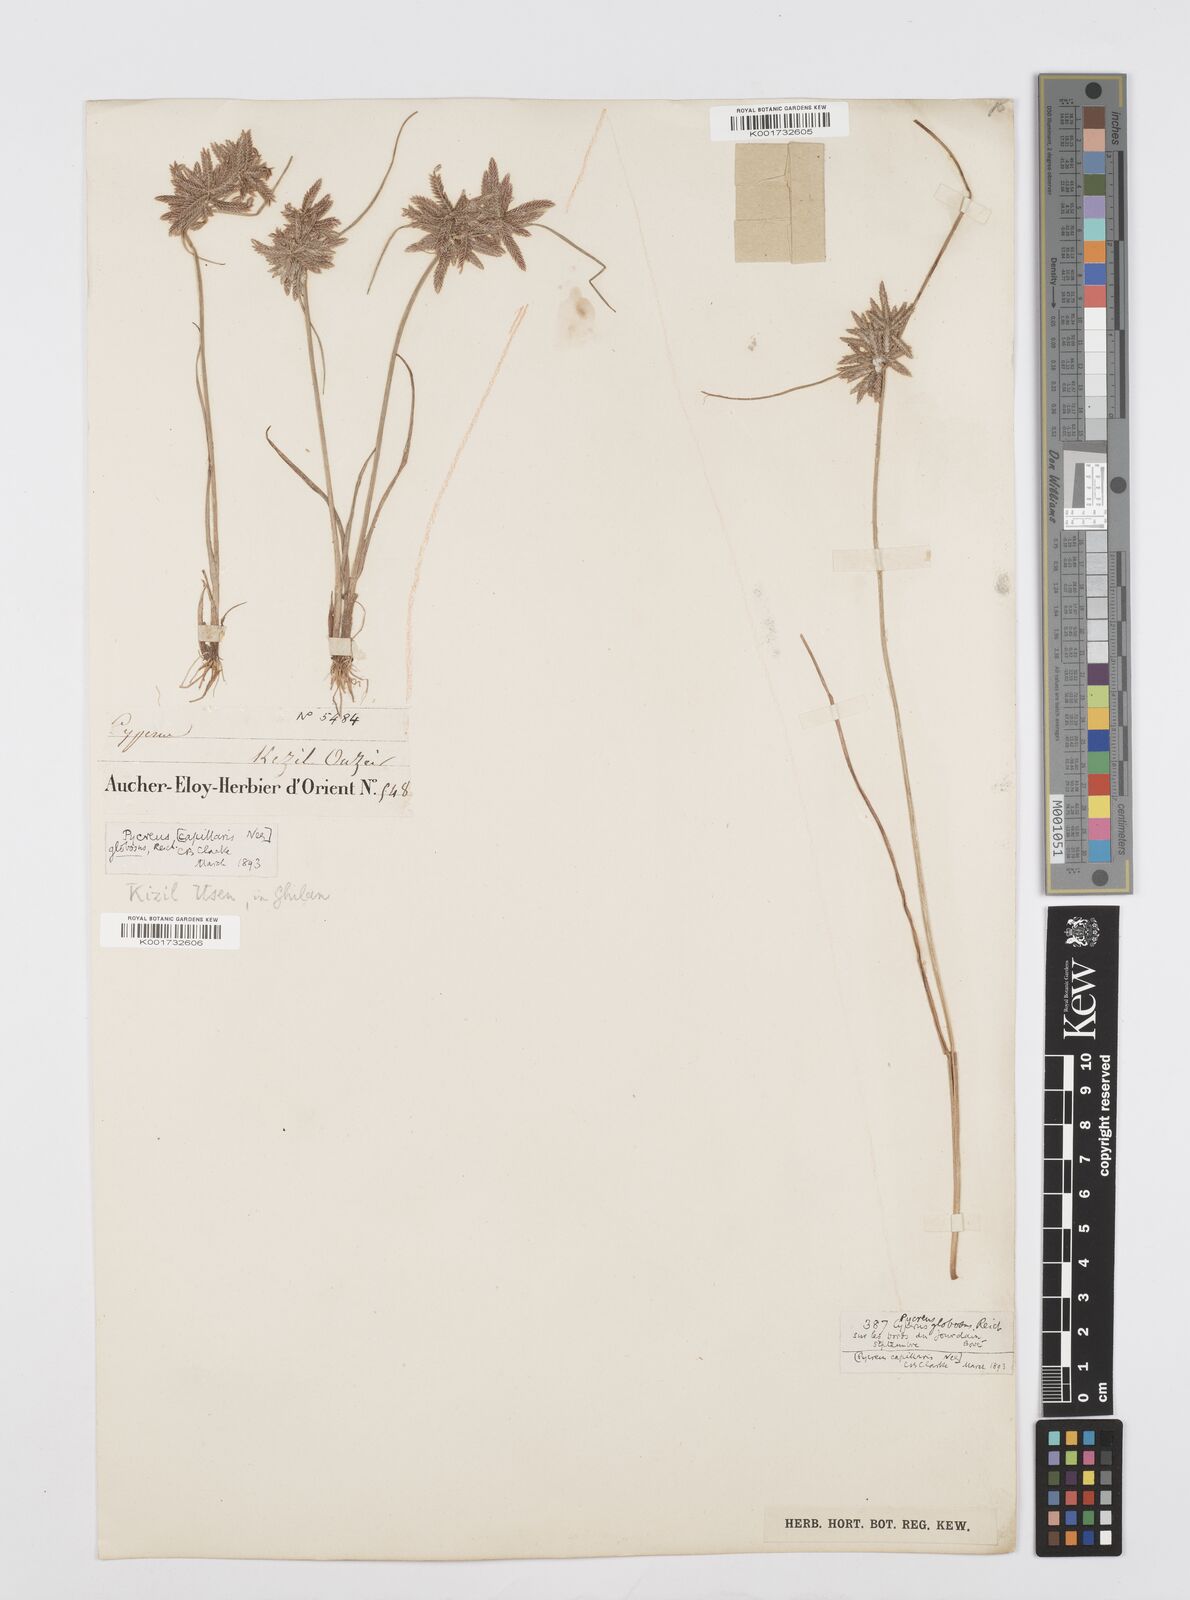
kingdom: Plantae
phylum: Tracheophyta
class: Liliopsida
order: Poales
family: Cyperaceae
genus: Cyperus
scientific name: Cyperus flavidus
